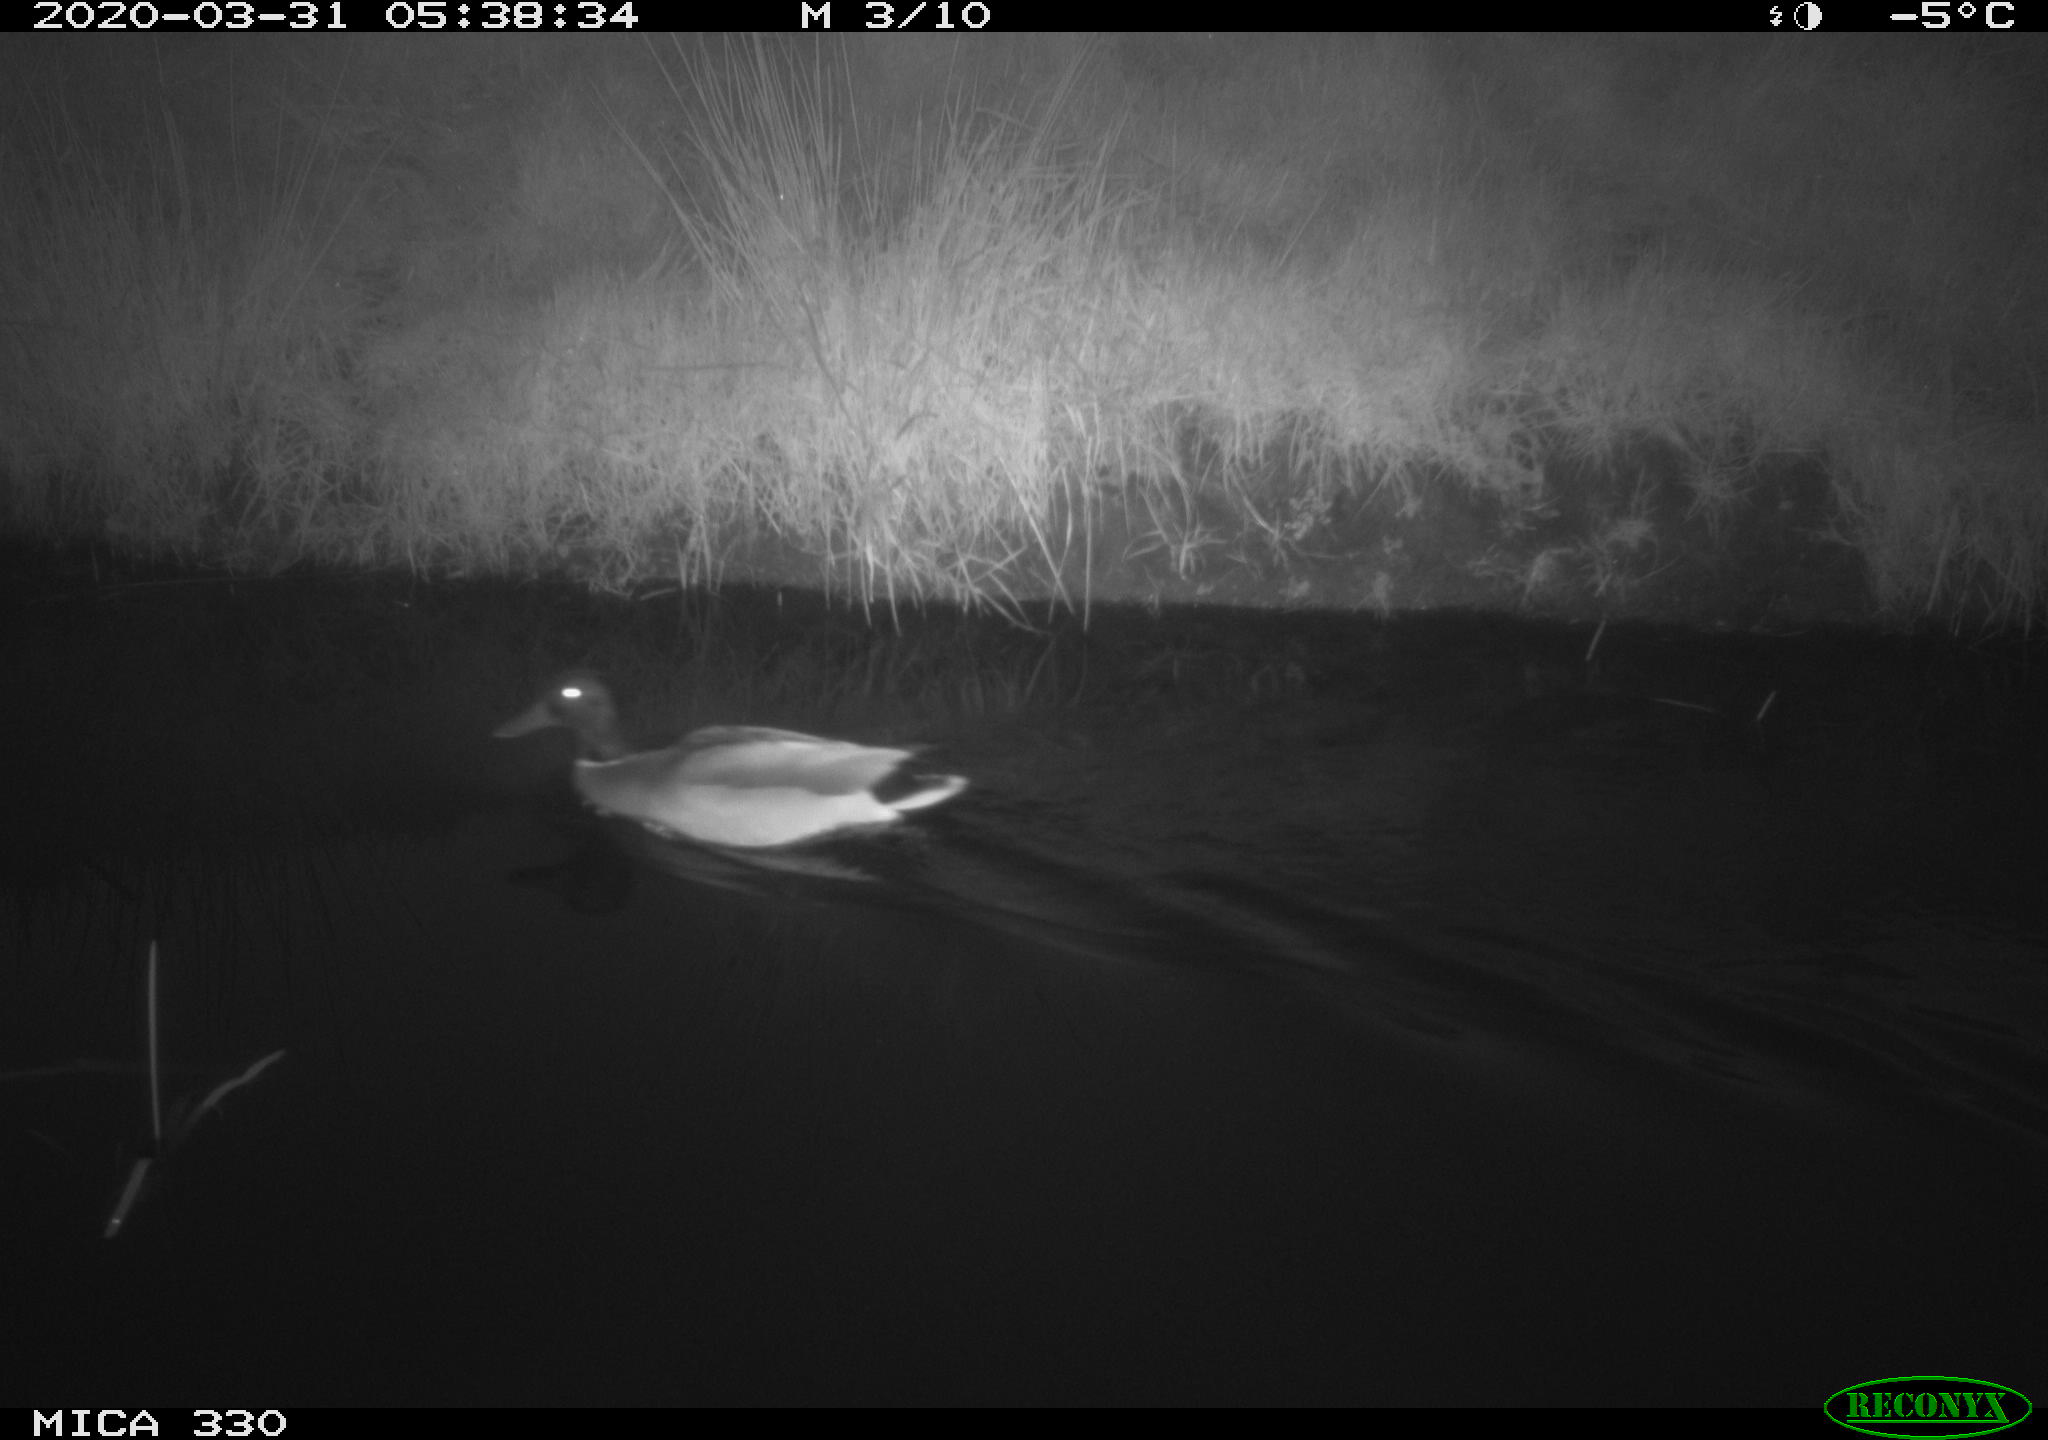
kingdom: Animalia
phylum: Chordata
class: Aves
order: Anseriformes
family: Anatidae
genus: Anas
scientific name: Anas platyrhynchos
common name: Mallard
